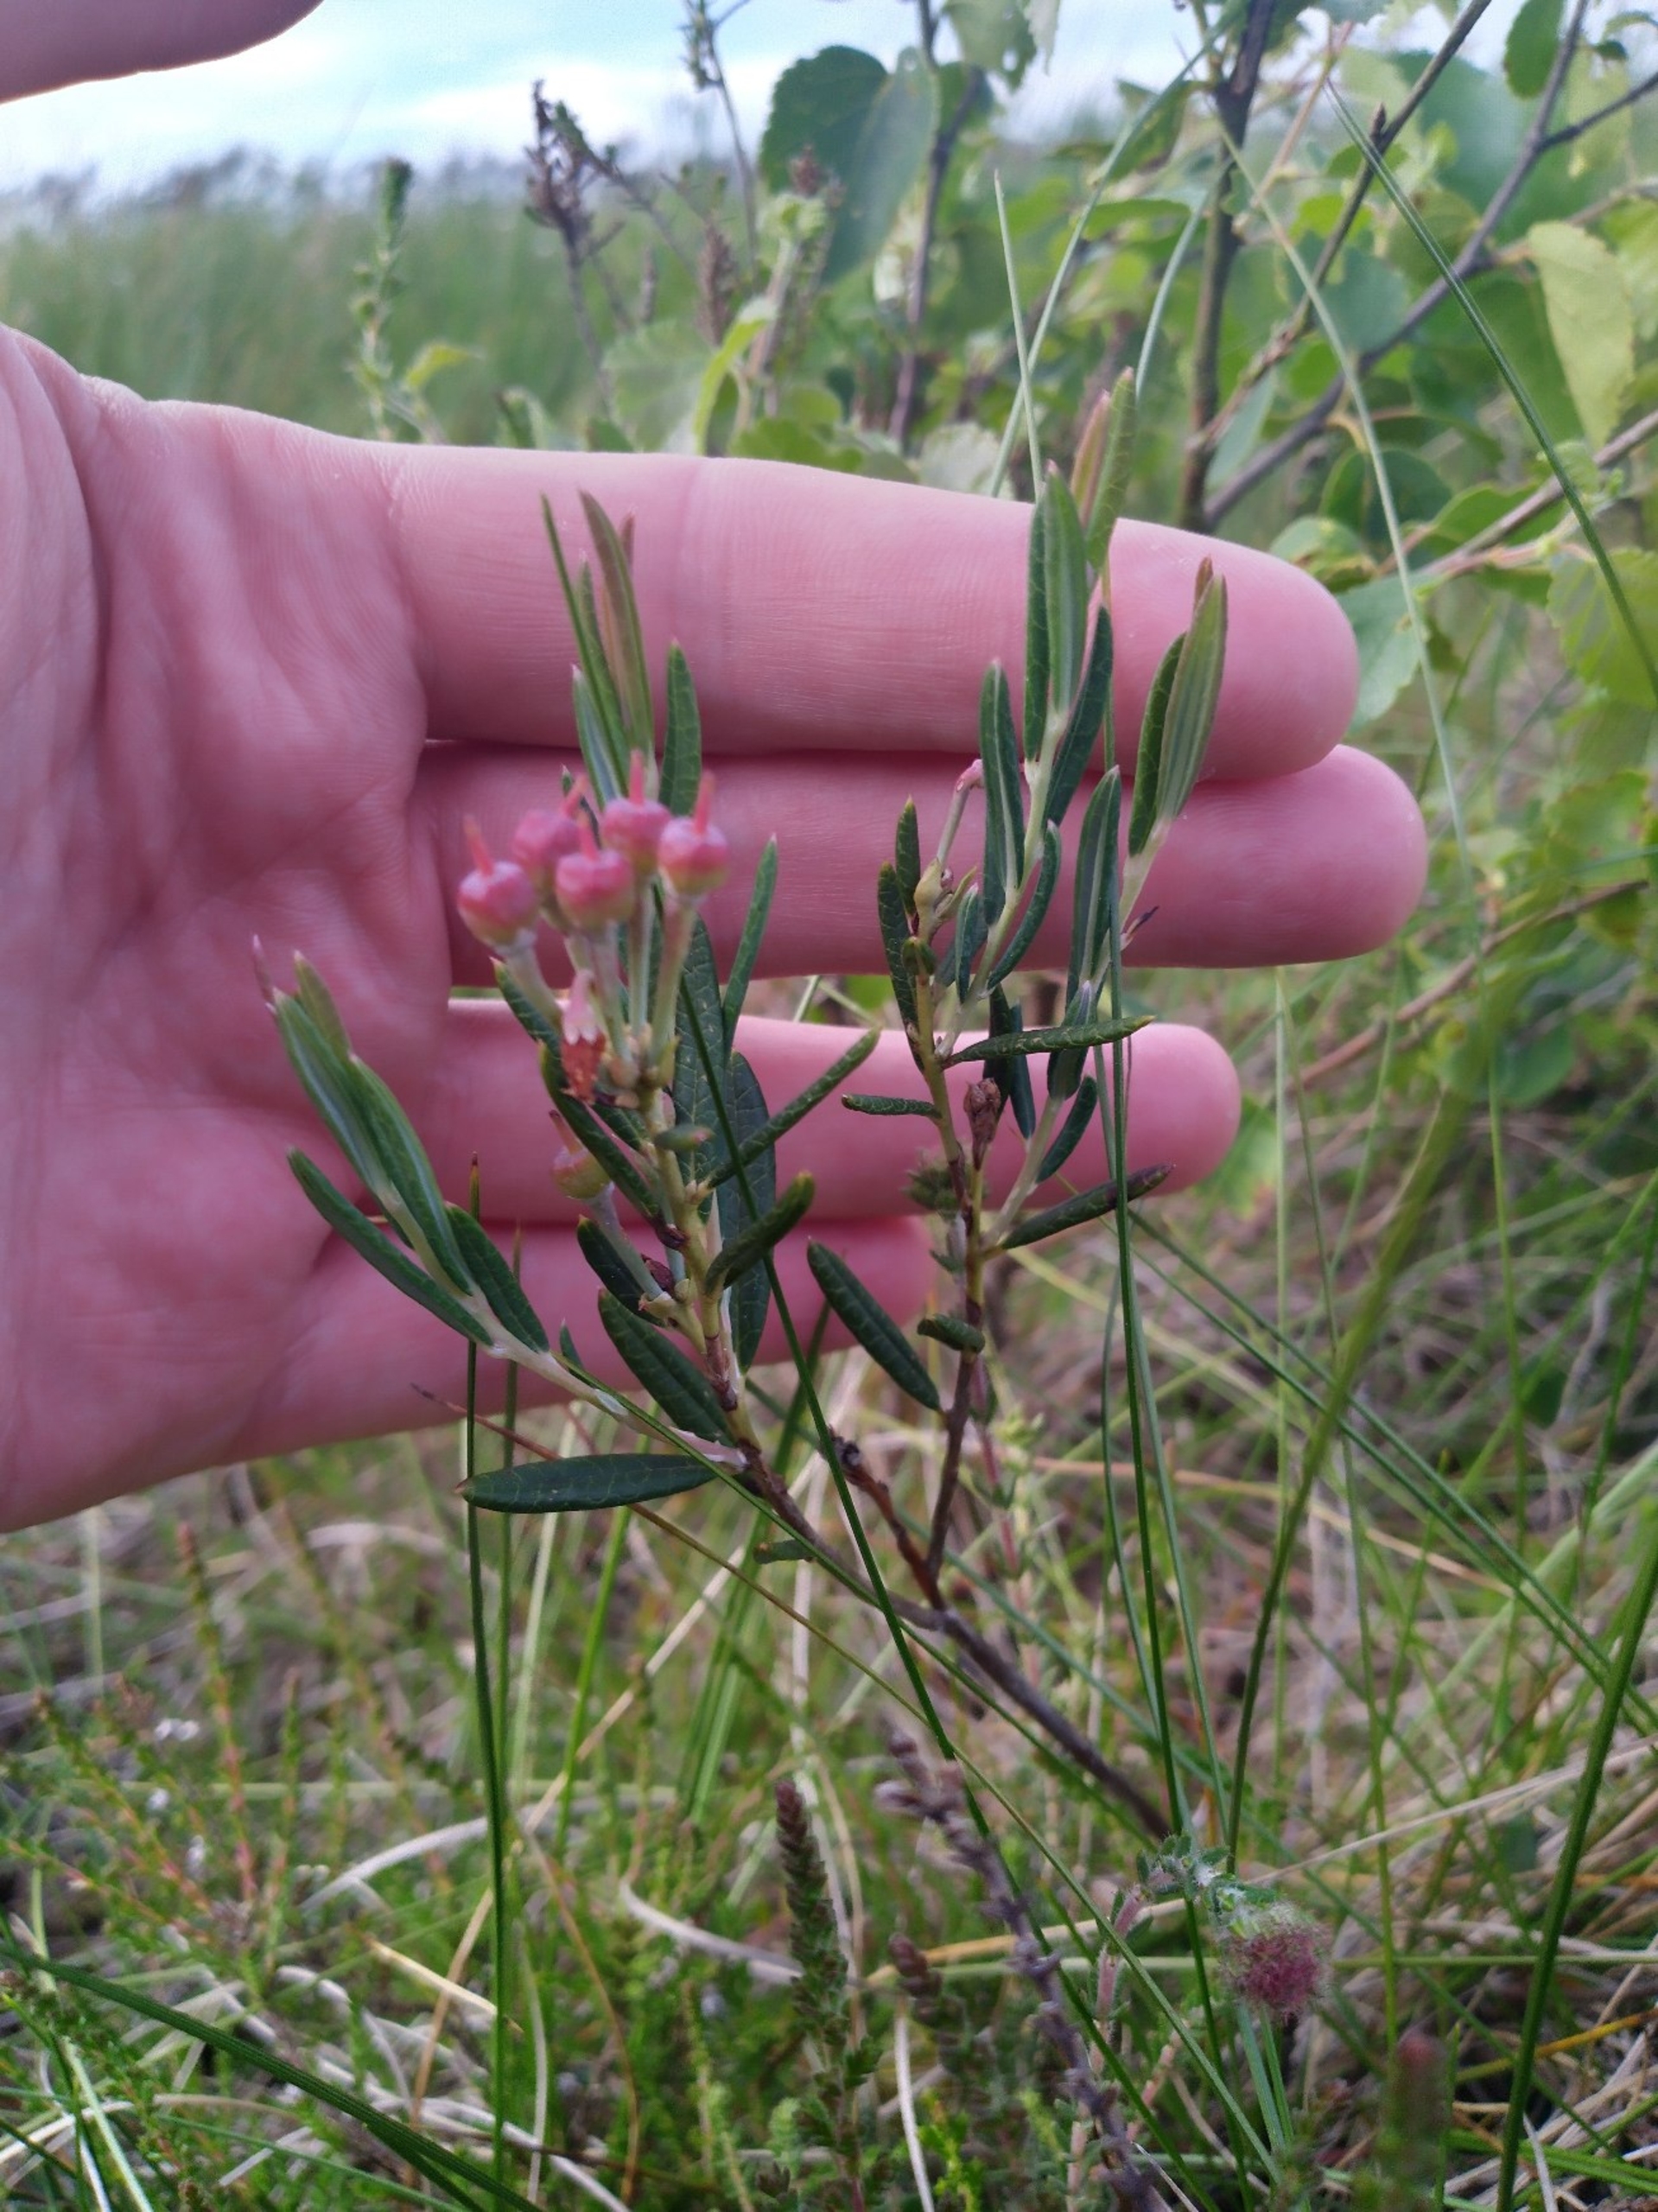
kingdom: Plantae
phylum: Tracheophyta
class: Magnoliopsida
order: Ericales
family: Ericaceae
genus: Andromeda
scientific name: Andromeda polifolia
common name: Rosmarinlyng
